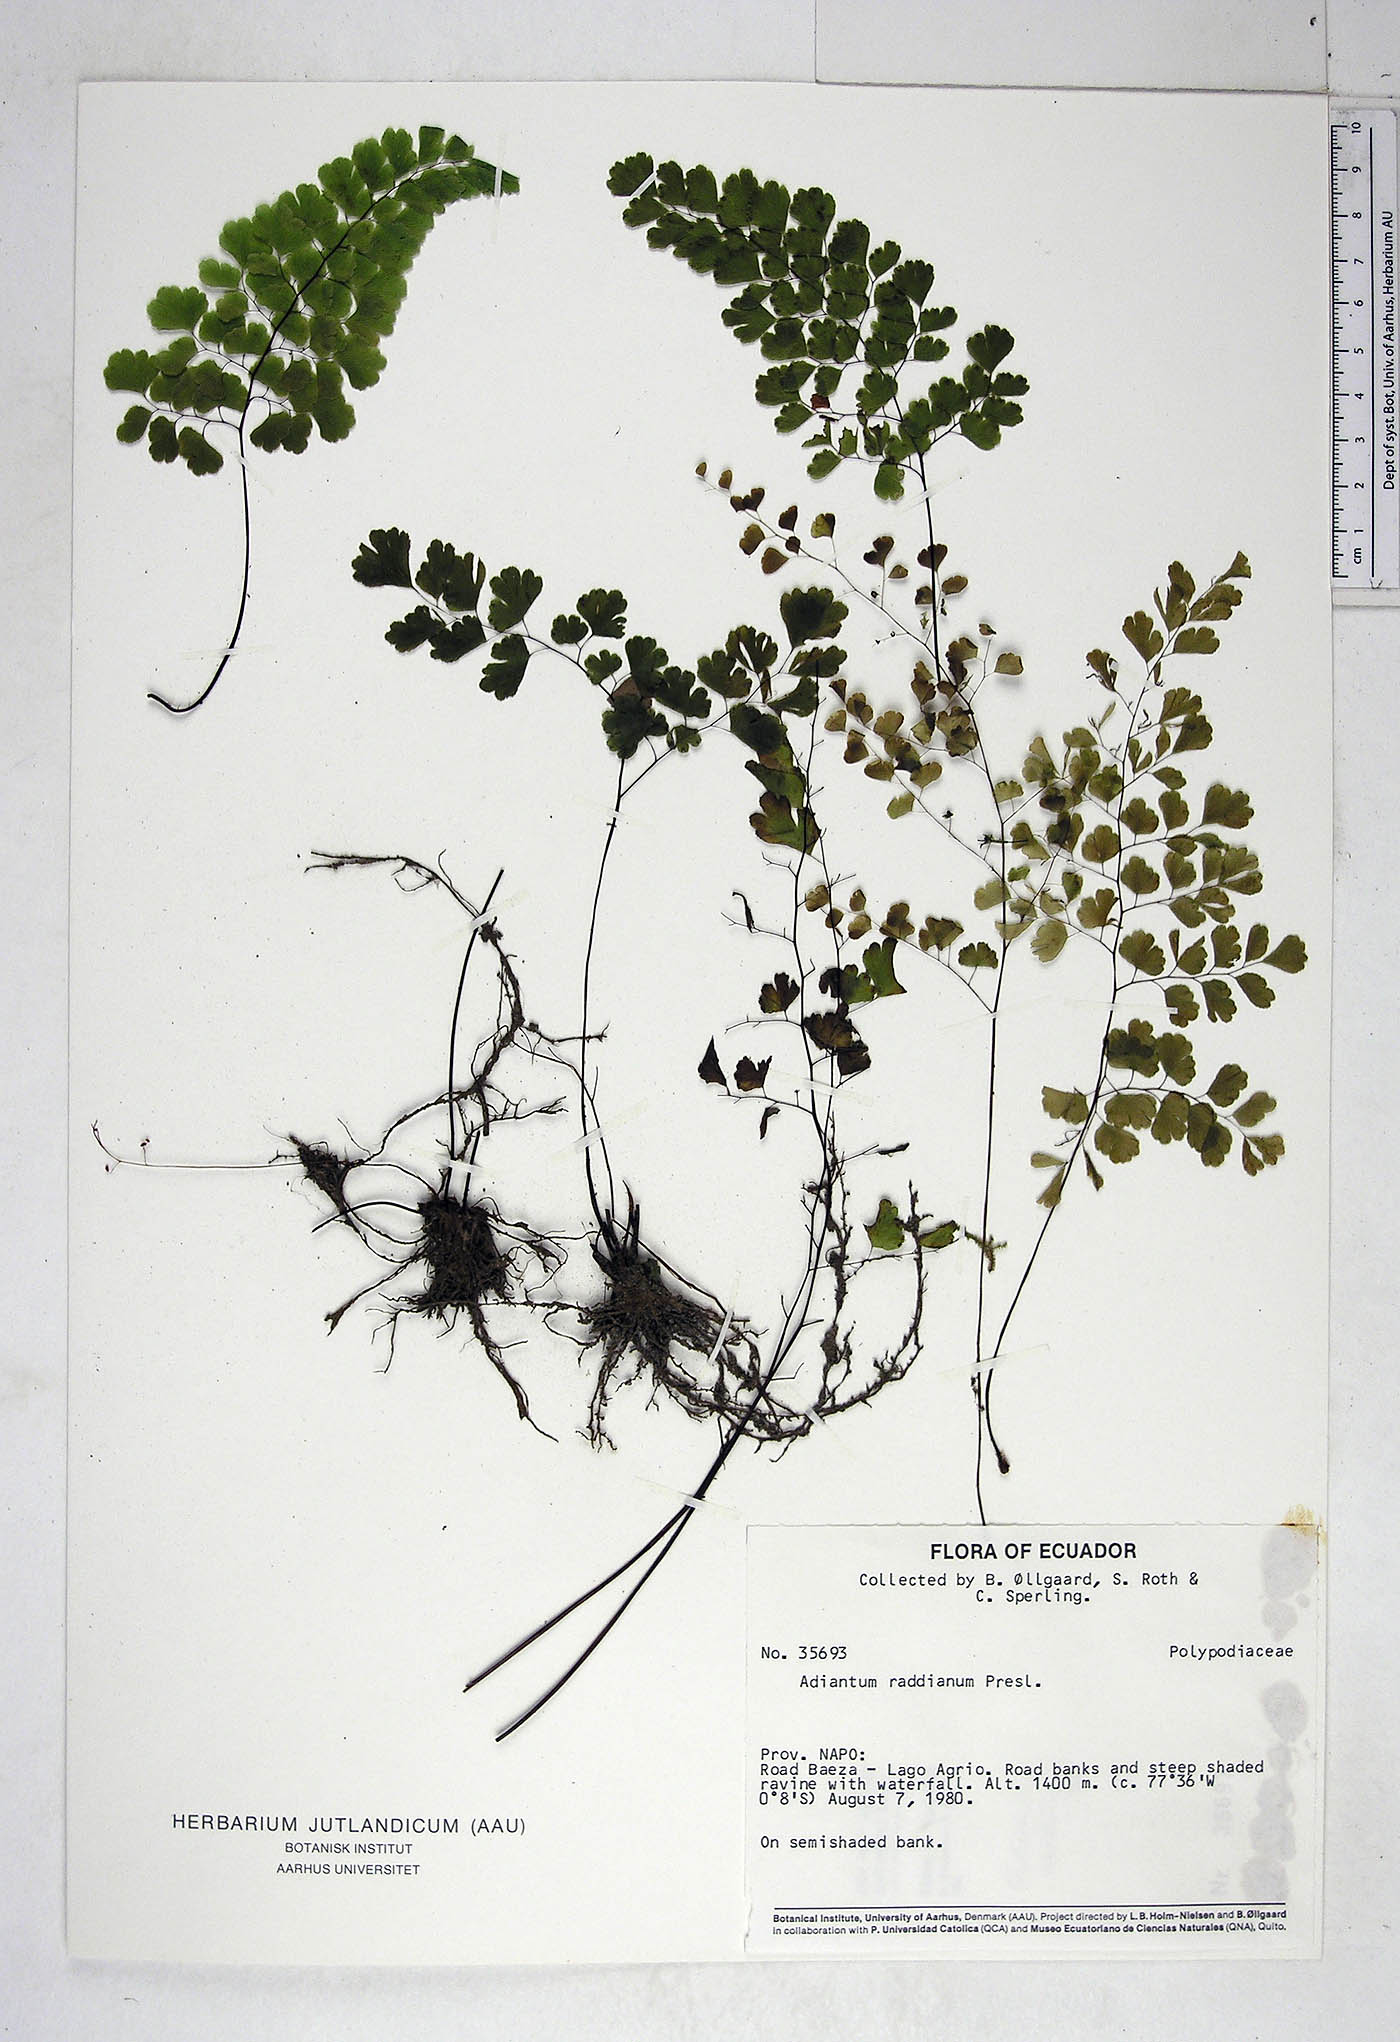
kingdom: Plantae
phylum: Tracheophyta
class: Polypodiopsida
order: Polypodiales
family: Pteridaceae
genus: Adiantum
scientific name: Adiantum raddianum
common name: Delta maidenhair fern
